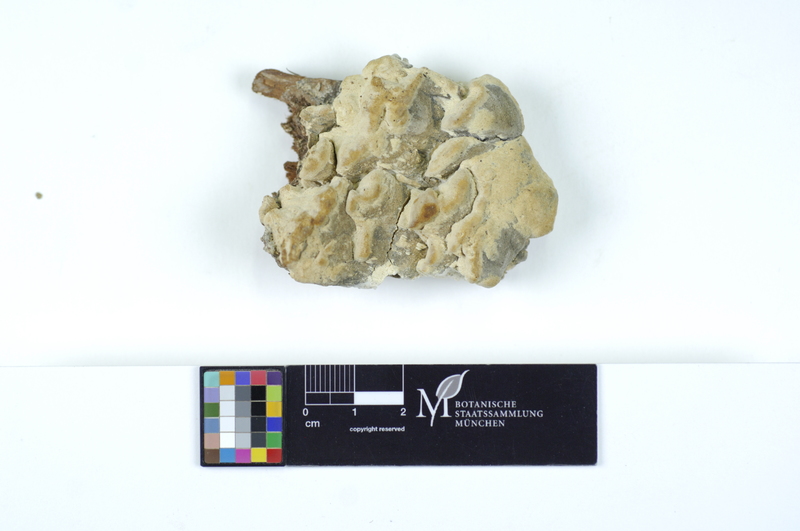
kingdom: Fungi
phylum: Basidiomycota
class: Agaricomycetes
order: Polyporales
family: Fomitopsidaceae
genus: Daedalea
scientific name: Daedalea xantha
